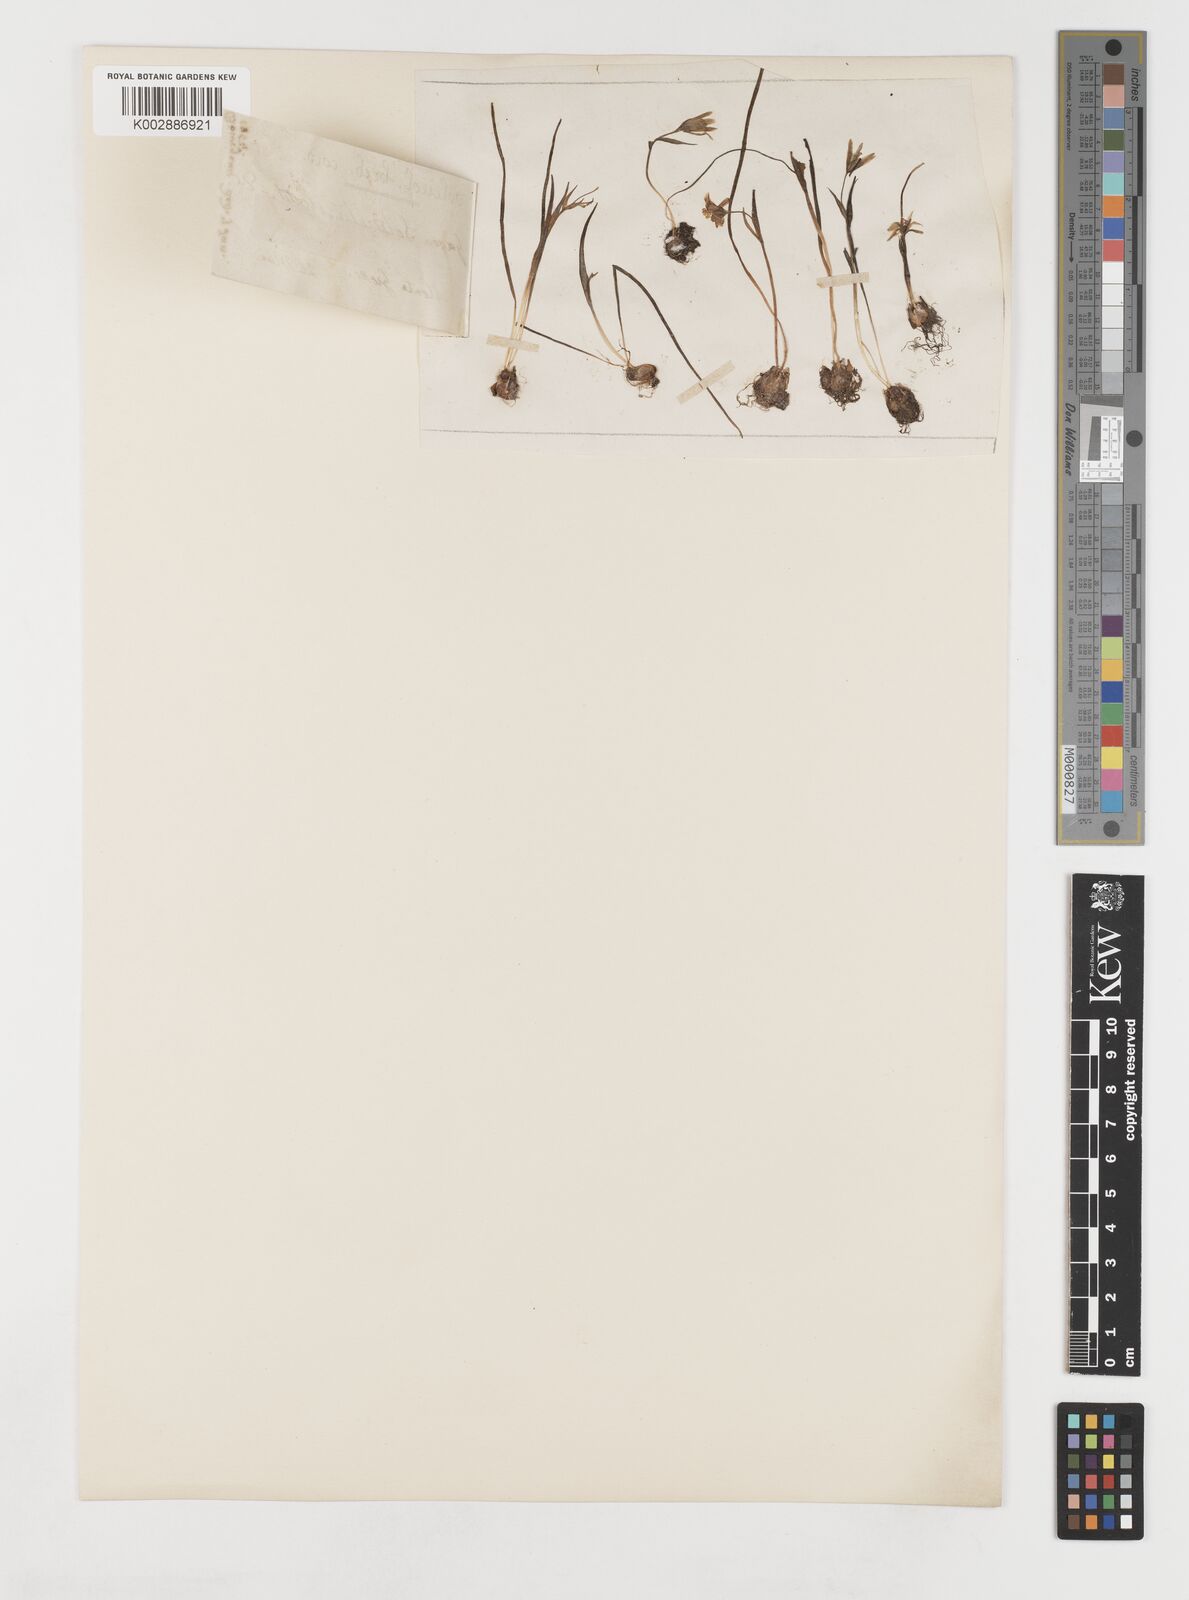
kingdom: Plantae
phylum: Tracheophyta
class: Liliopsida
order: Liliales
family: Liliaceae
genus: Gagea
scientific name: Gagea soleirolii
